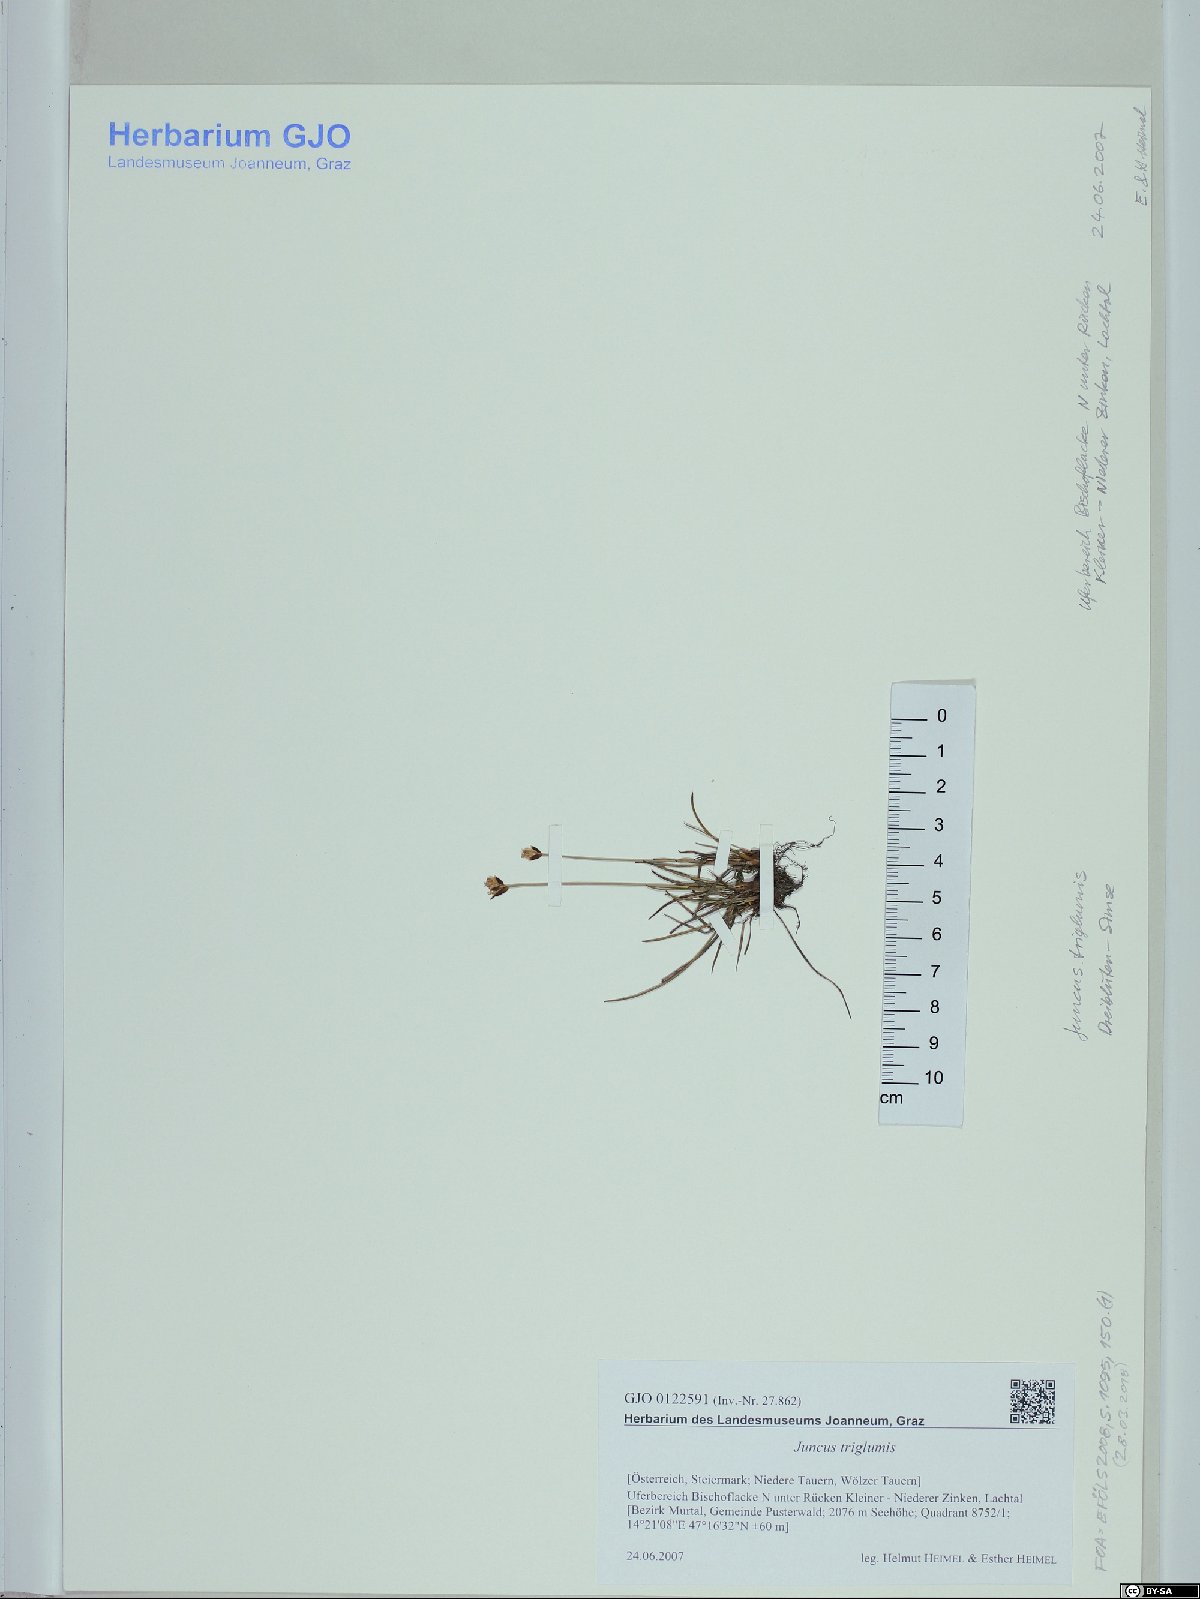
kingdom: Plantae
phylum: Tracheophyta
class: Liliopsida
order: Poales
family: Juncaceae
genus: Juncus
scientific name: Juncus triglumis
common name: Three-flowered rush
